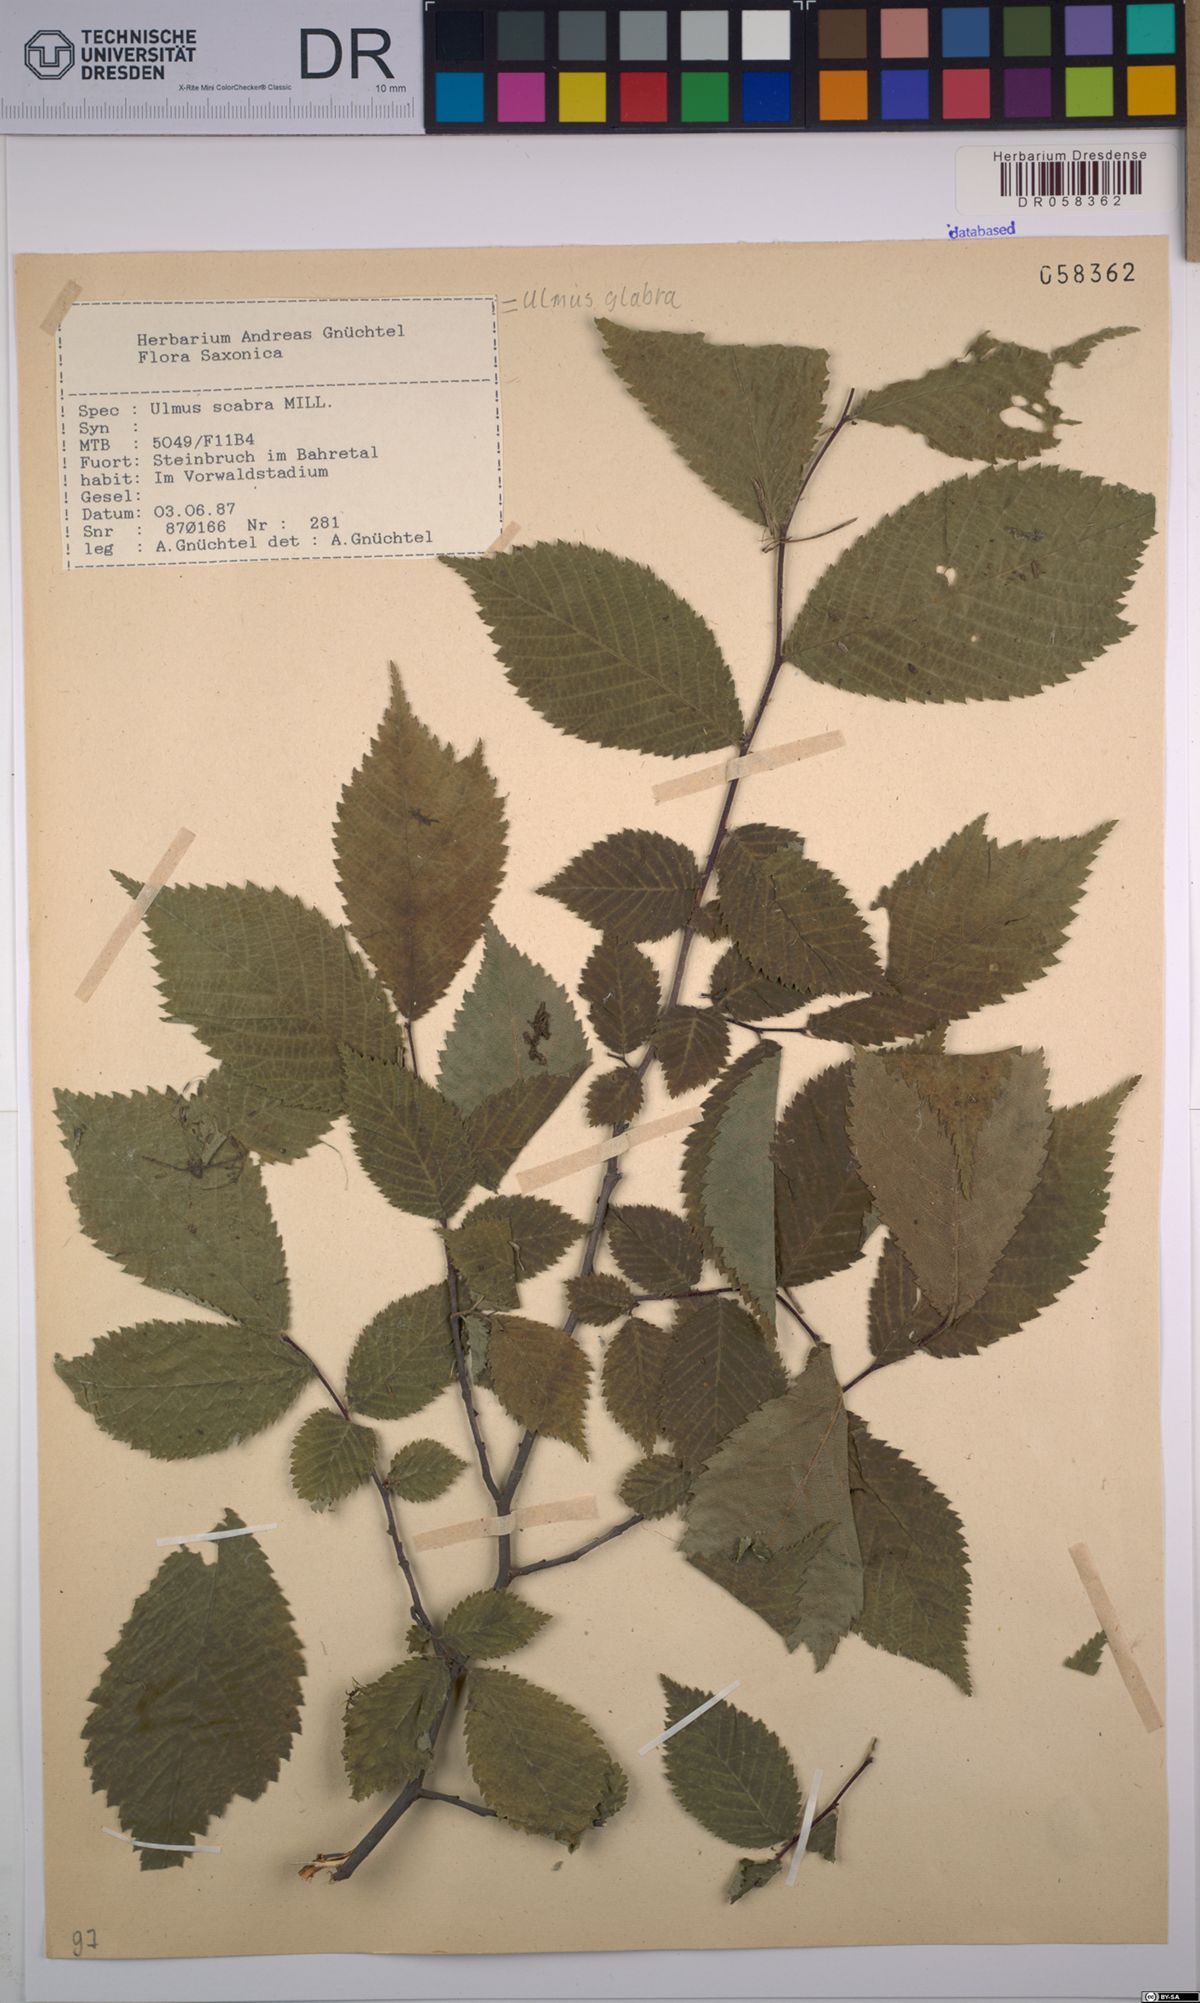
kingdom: Plantae
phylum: Tracheophyta
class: Magnoliopsida
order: Rosales
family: Ulmaceae
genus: Ulmus
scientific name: Ulmus glabra
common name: Wych elm
